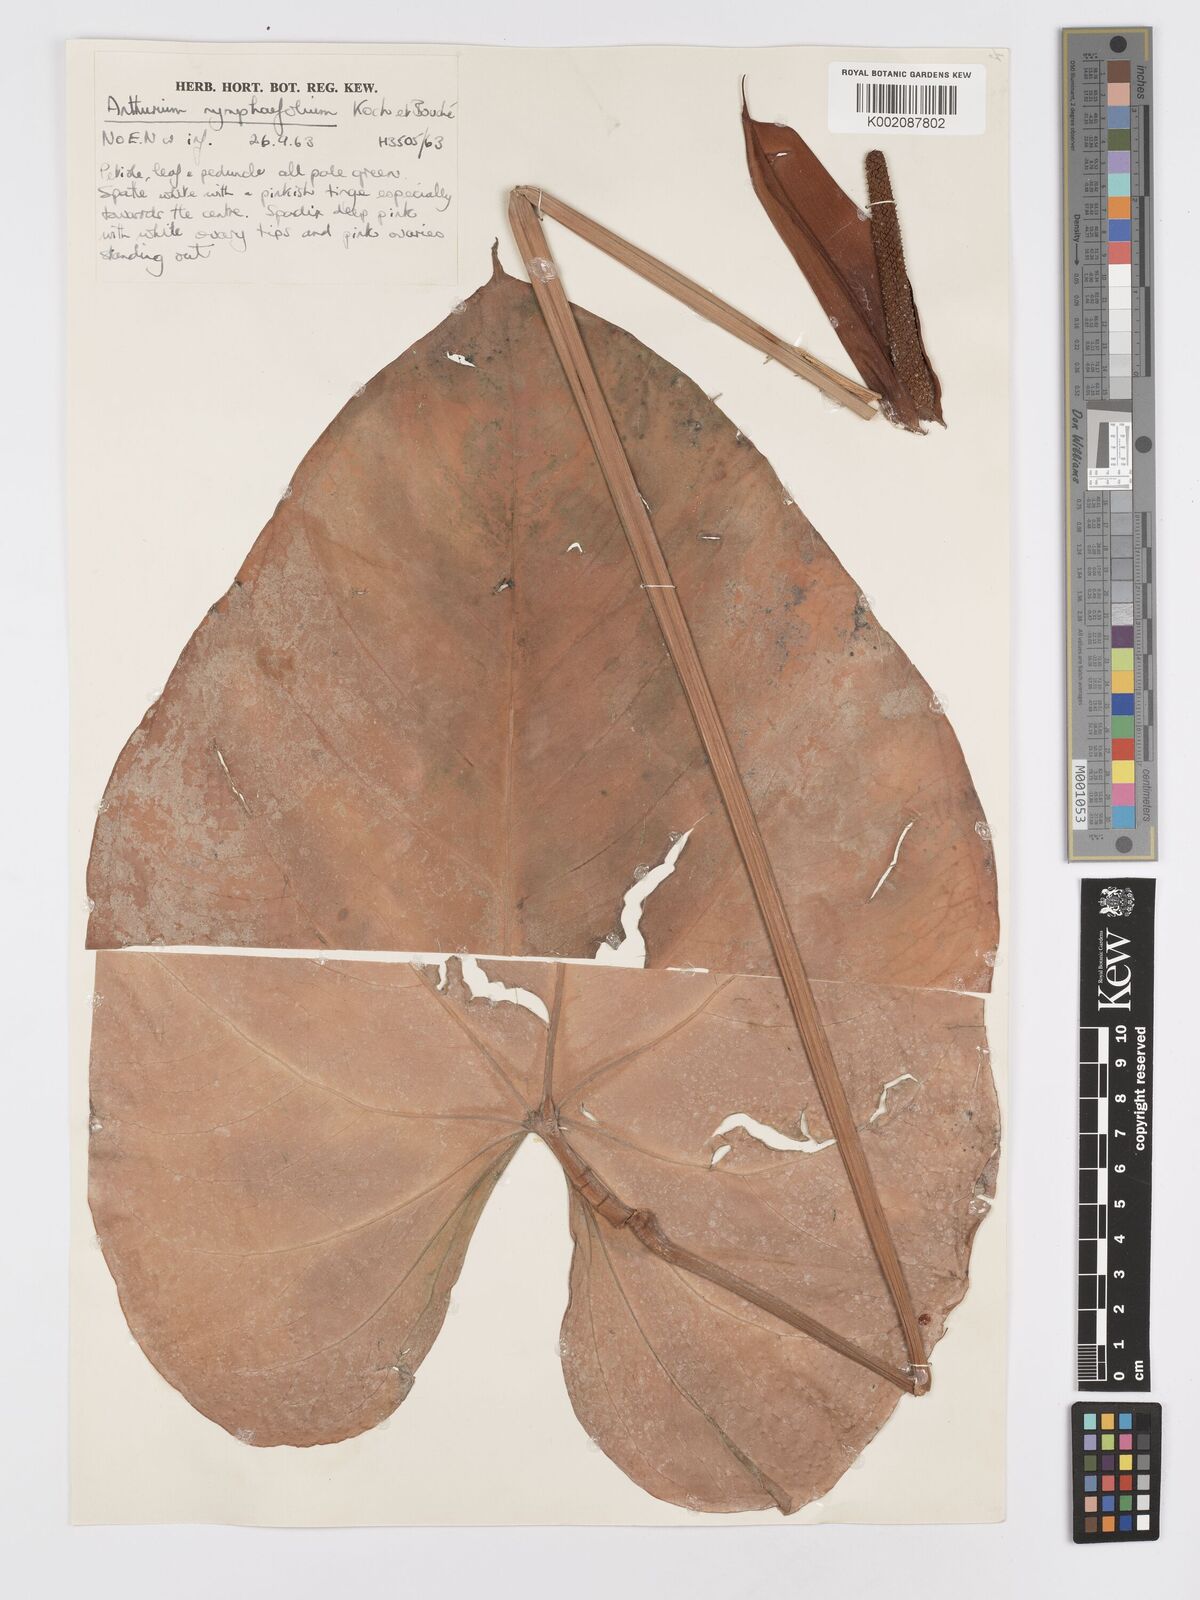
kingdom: Plantae
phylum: Tracheophyta
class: Liliopsida
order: Alismatales
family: Araceae
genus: Anthurium
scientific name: Anthurium nymphaeifolium
